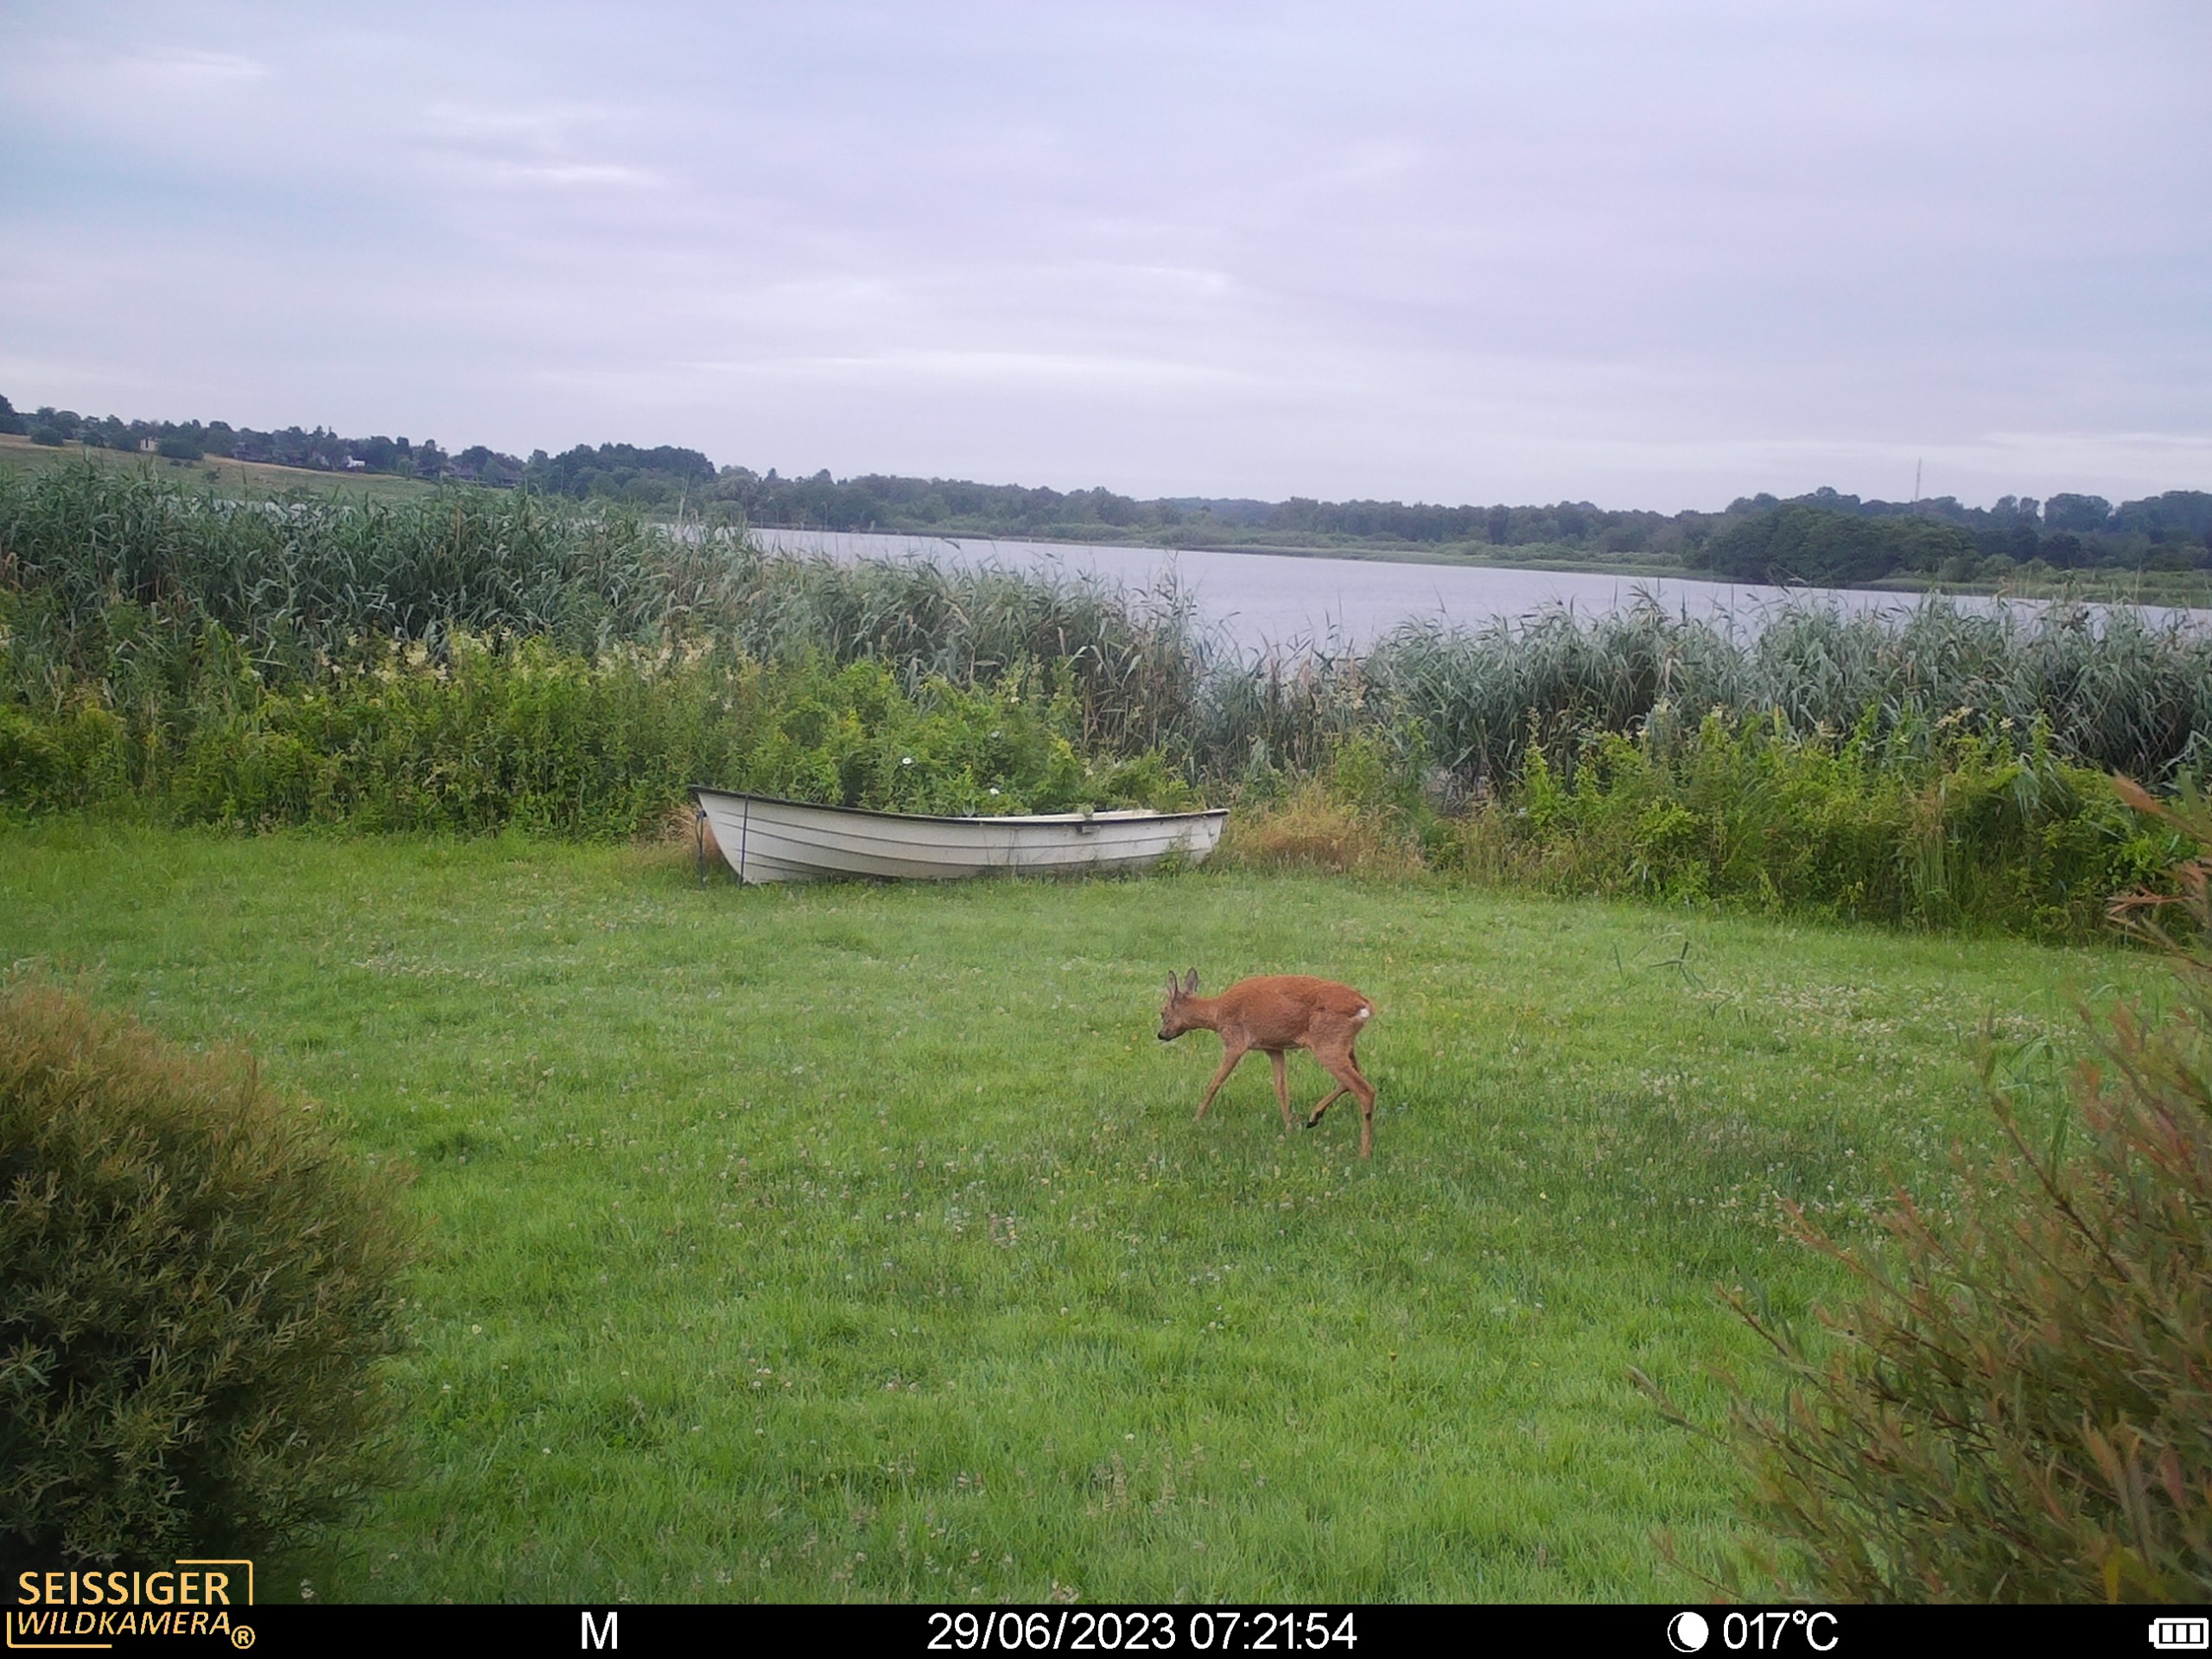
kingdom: Animalia
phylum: Chordata
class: Mammalia
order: Artiodactyla
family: Cervidae
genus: Capreolus
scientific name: Capreolus capreolus
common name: Rådyr
